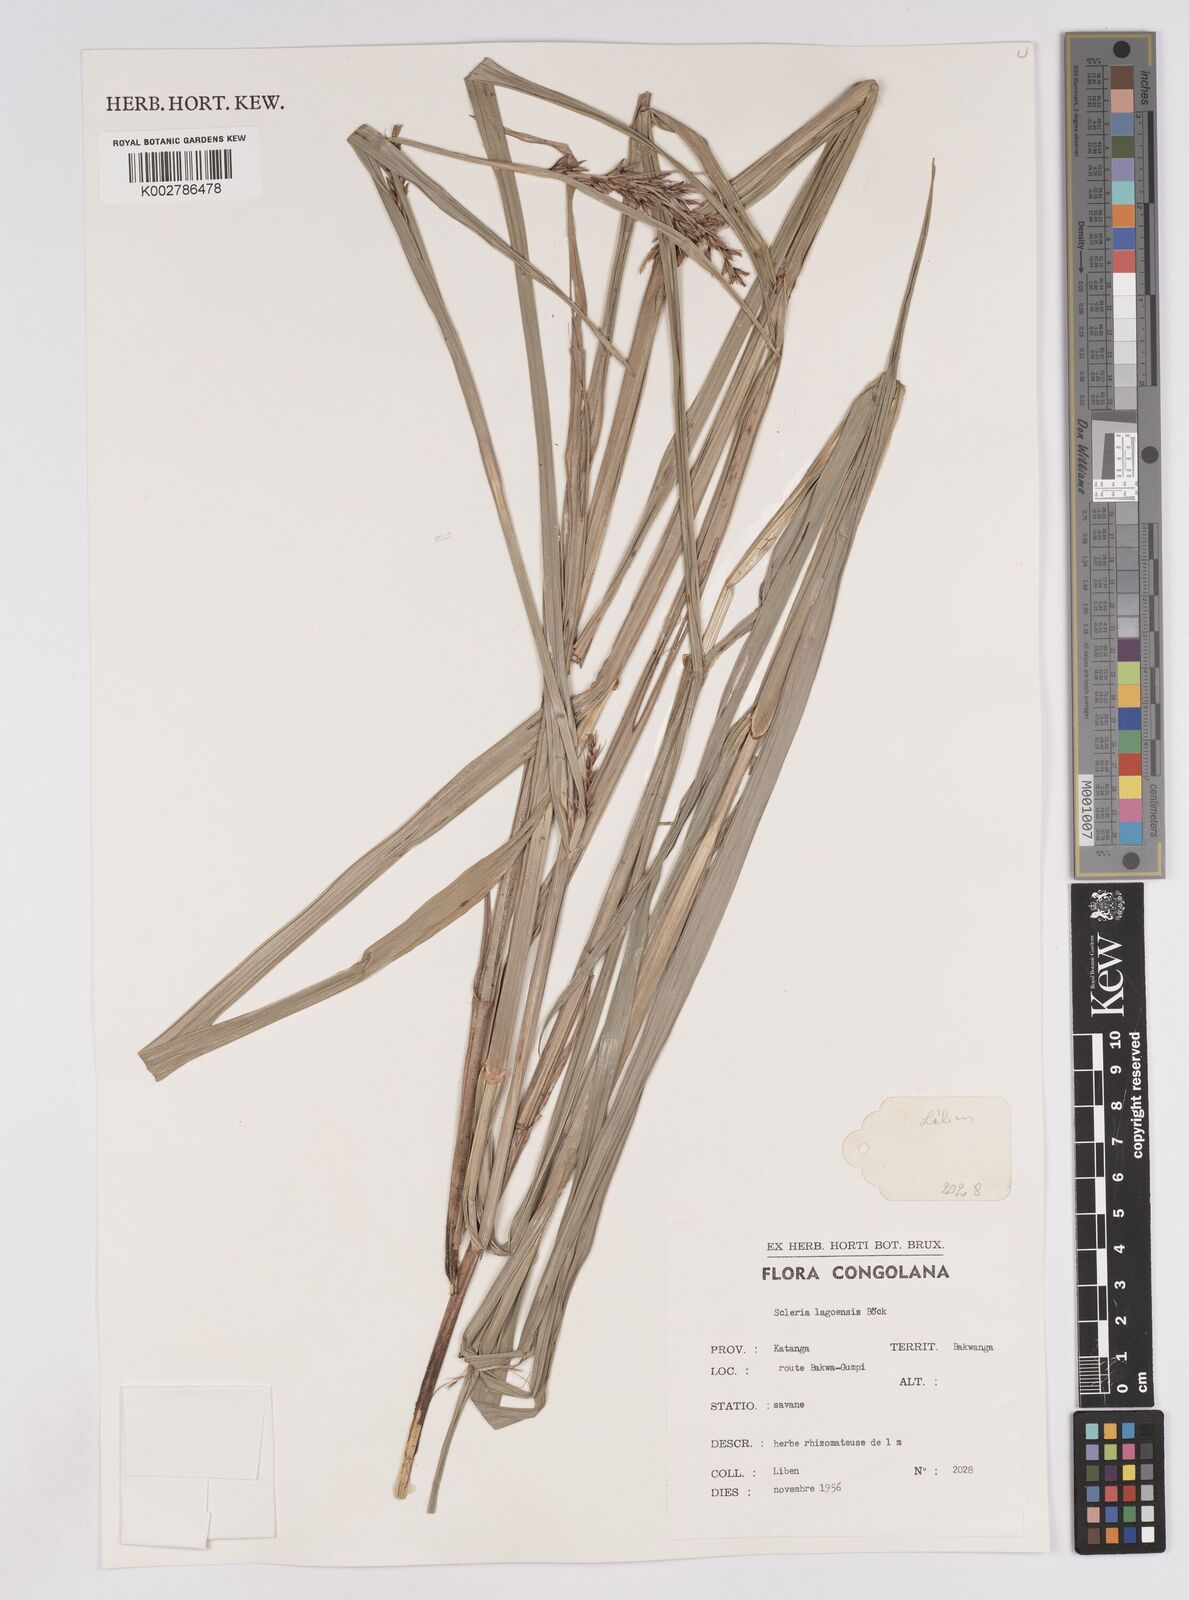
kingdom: Plantae
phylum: Tracheophyta
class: Liliopsida
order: Poales
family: Cyperaceae
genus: Scleria
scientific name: Scleria lagoensis
